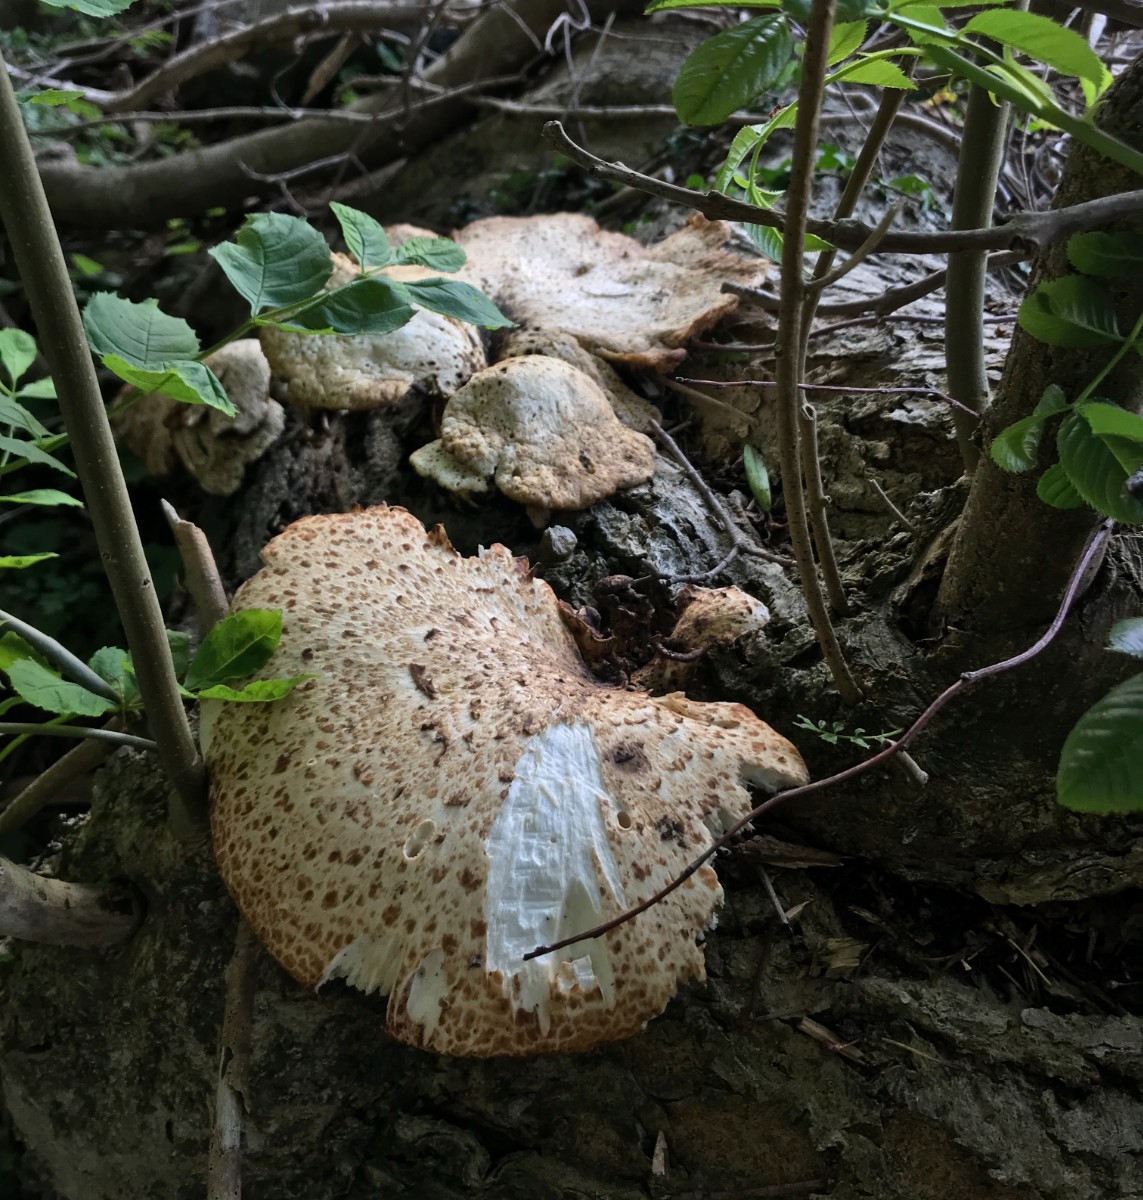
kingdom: Fungi
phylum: Basidiomycota
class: Agaricomycetes
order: Polyporales
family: Polyporaceae
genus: Cerioporus
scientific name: Cerioporus squamosus
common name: skællet stilkporesvamp
